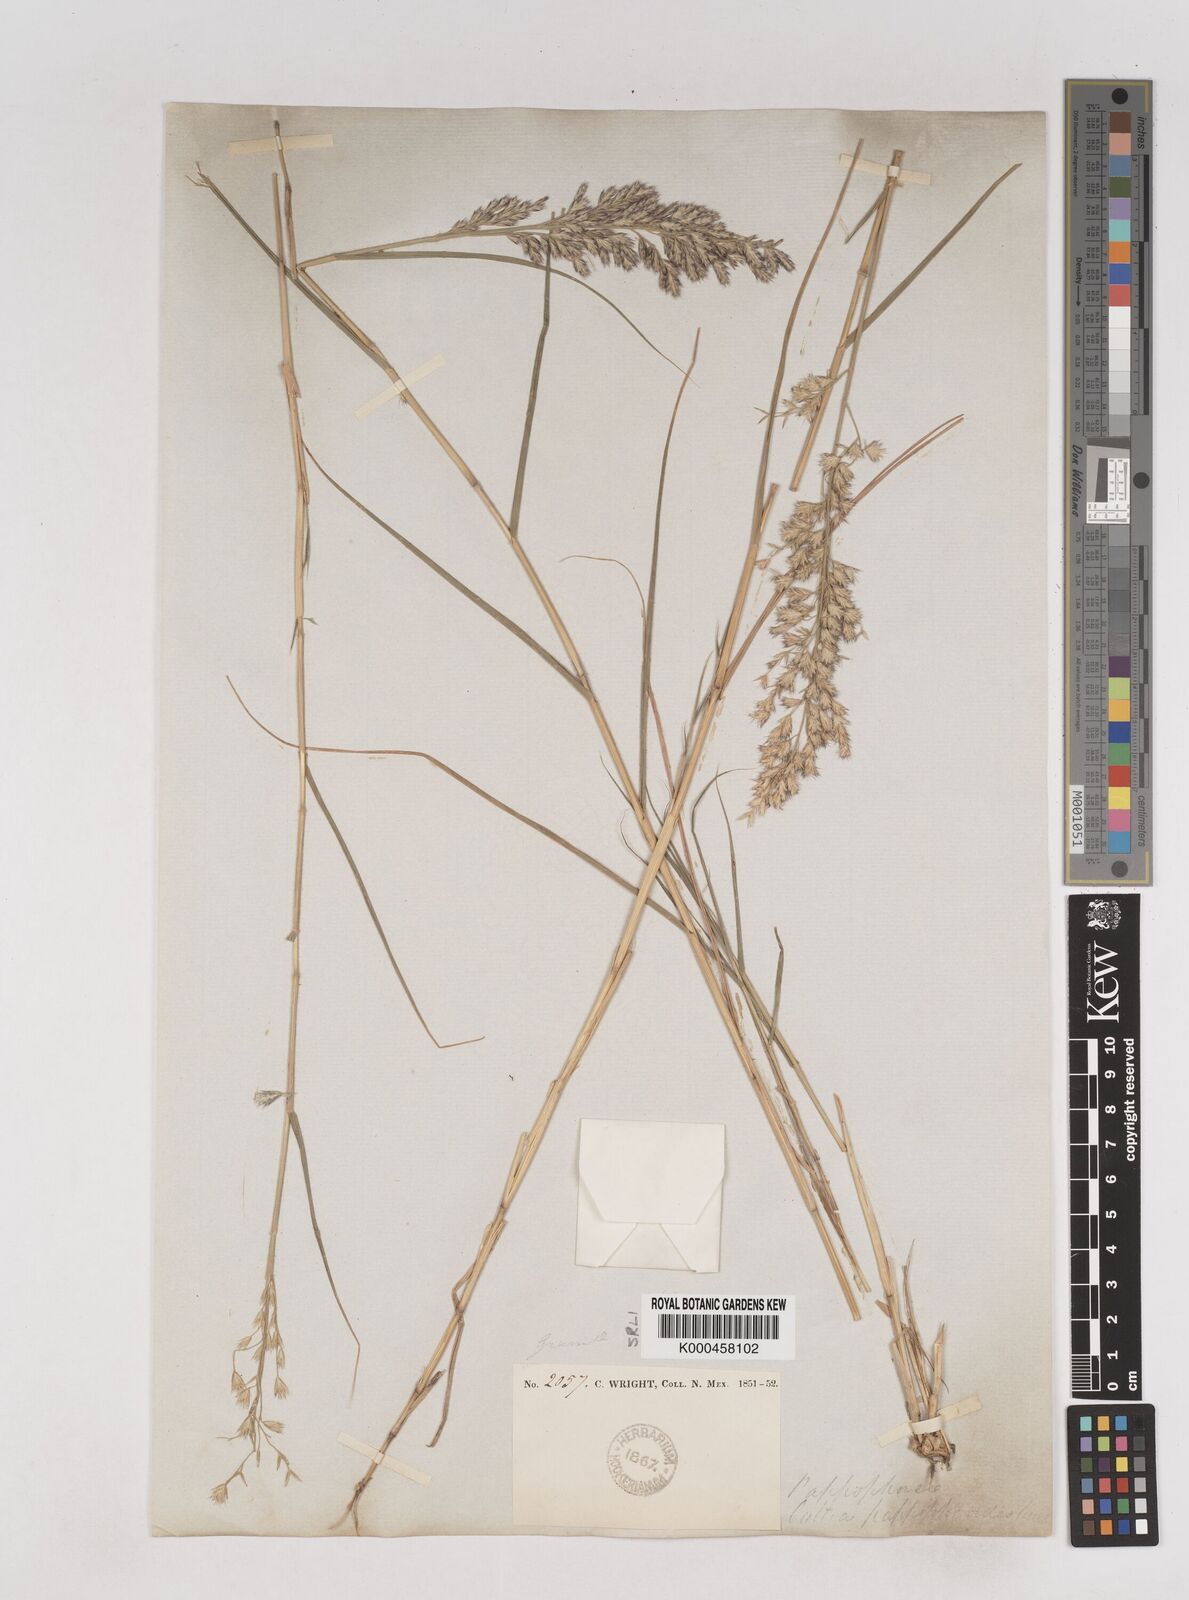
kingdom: Plantae
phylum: Tracheophyta
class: Liliopsida
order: Poales
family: Poaceae
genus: Cottea
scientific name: Cottea
